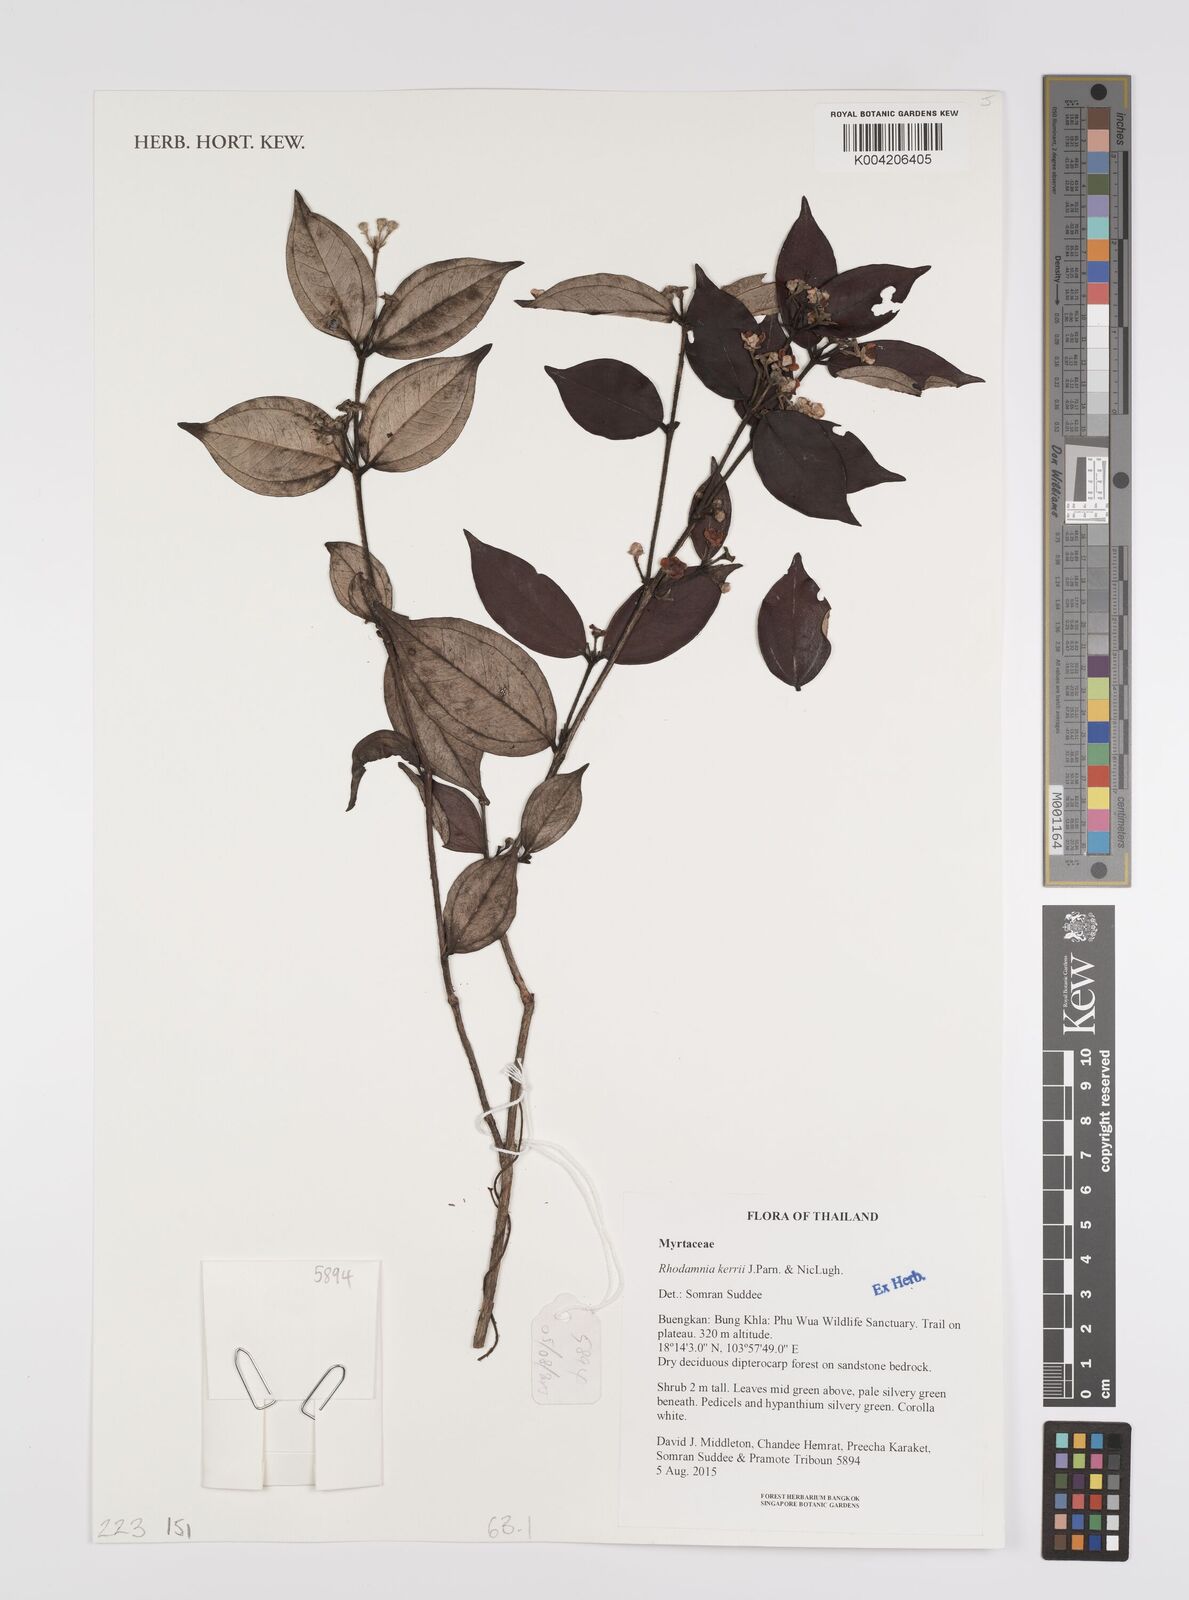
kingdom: Plantae
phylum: Tracheophyta
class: Magnoliopsida
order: Myrtales
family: Myrtaceae
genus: Rhodamnia
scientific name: Rhodamnia kerrii
